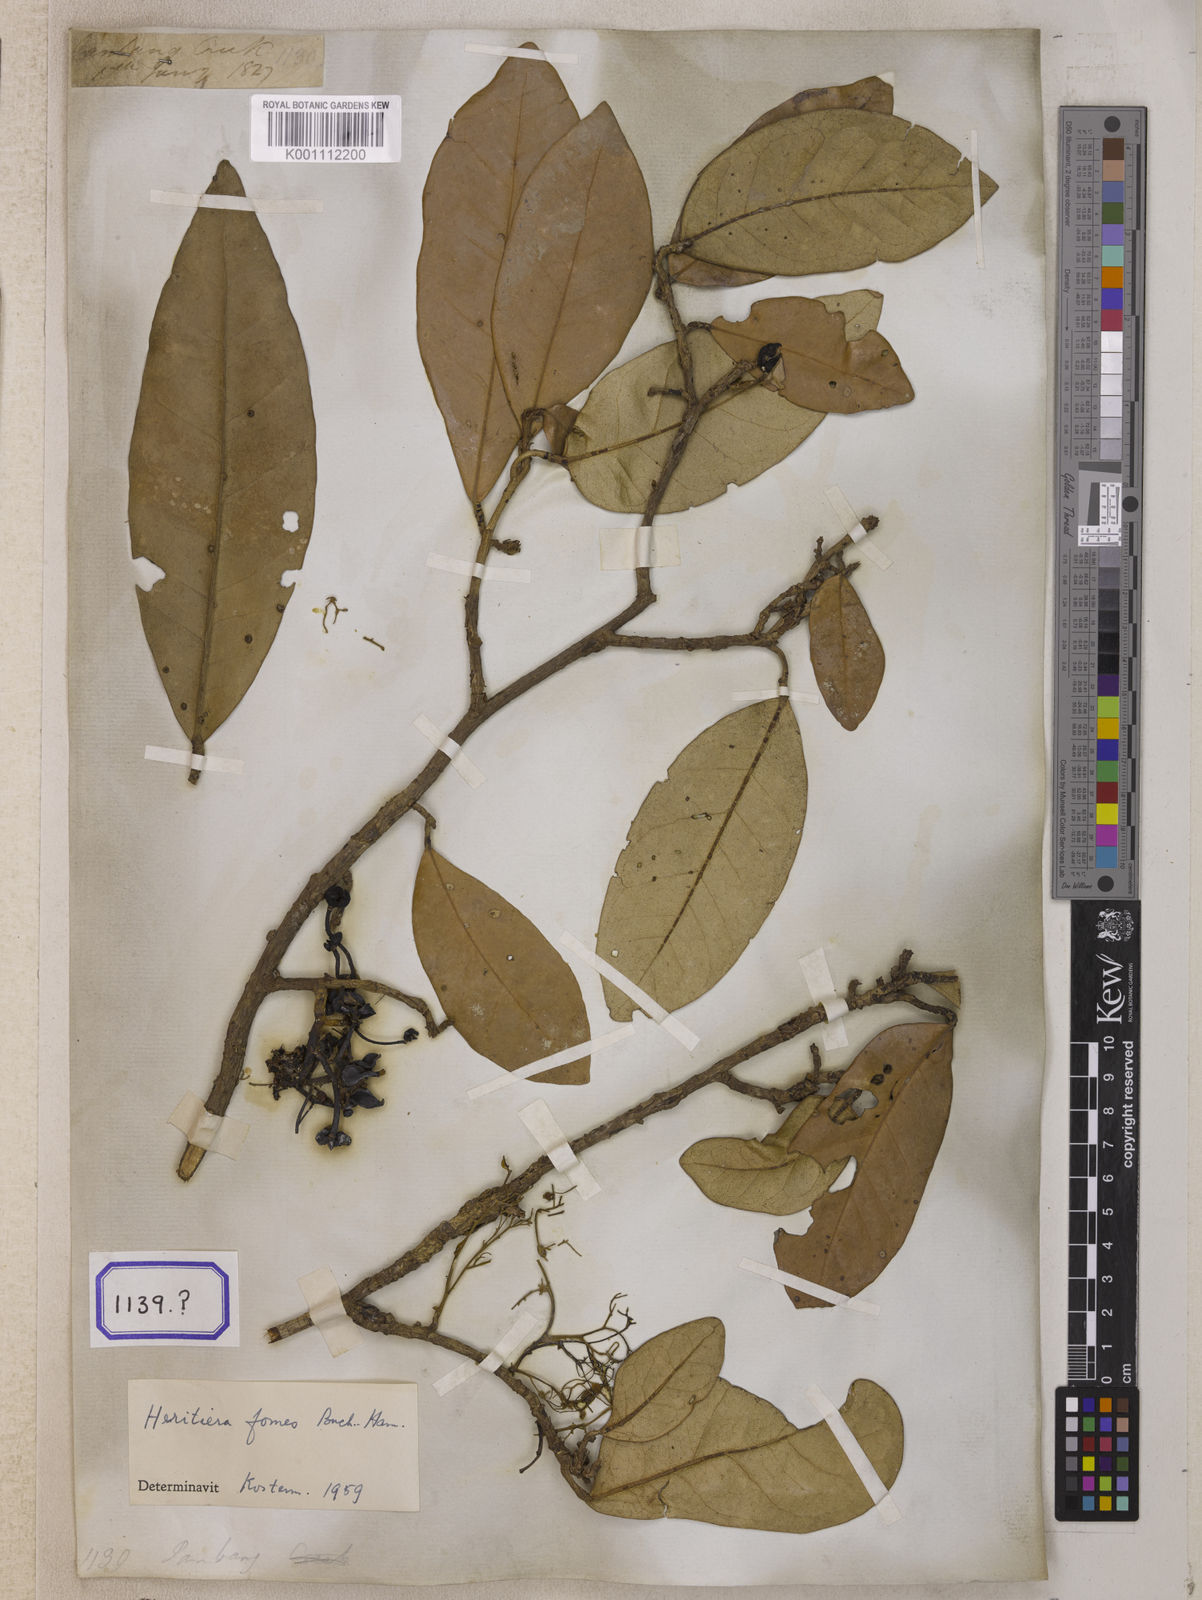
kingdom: Plantae
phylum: Tracheophyta
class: Magnoliopsida
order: Malvales
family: Malvaceae
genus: Heritiera
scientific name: Heritiera
